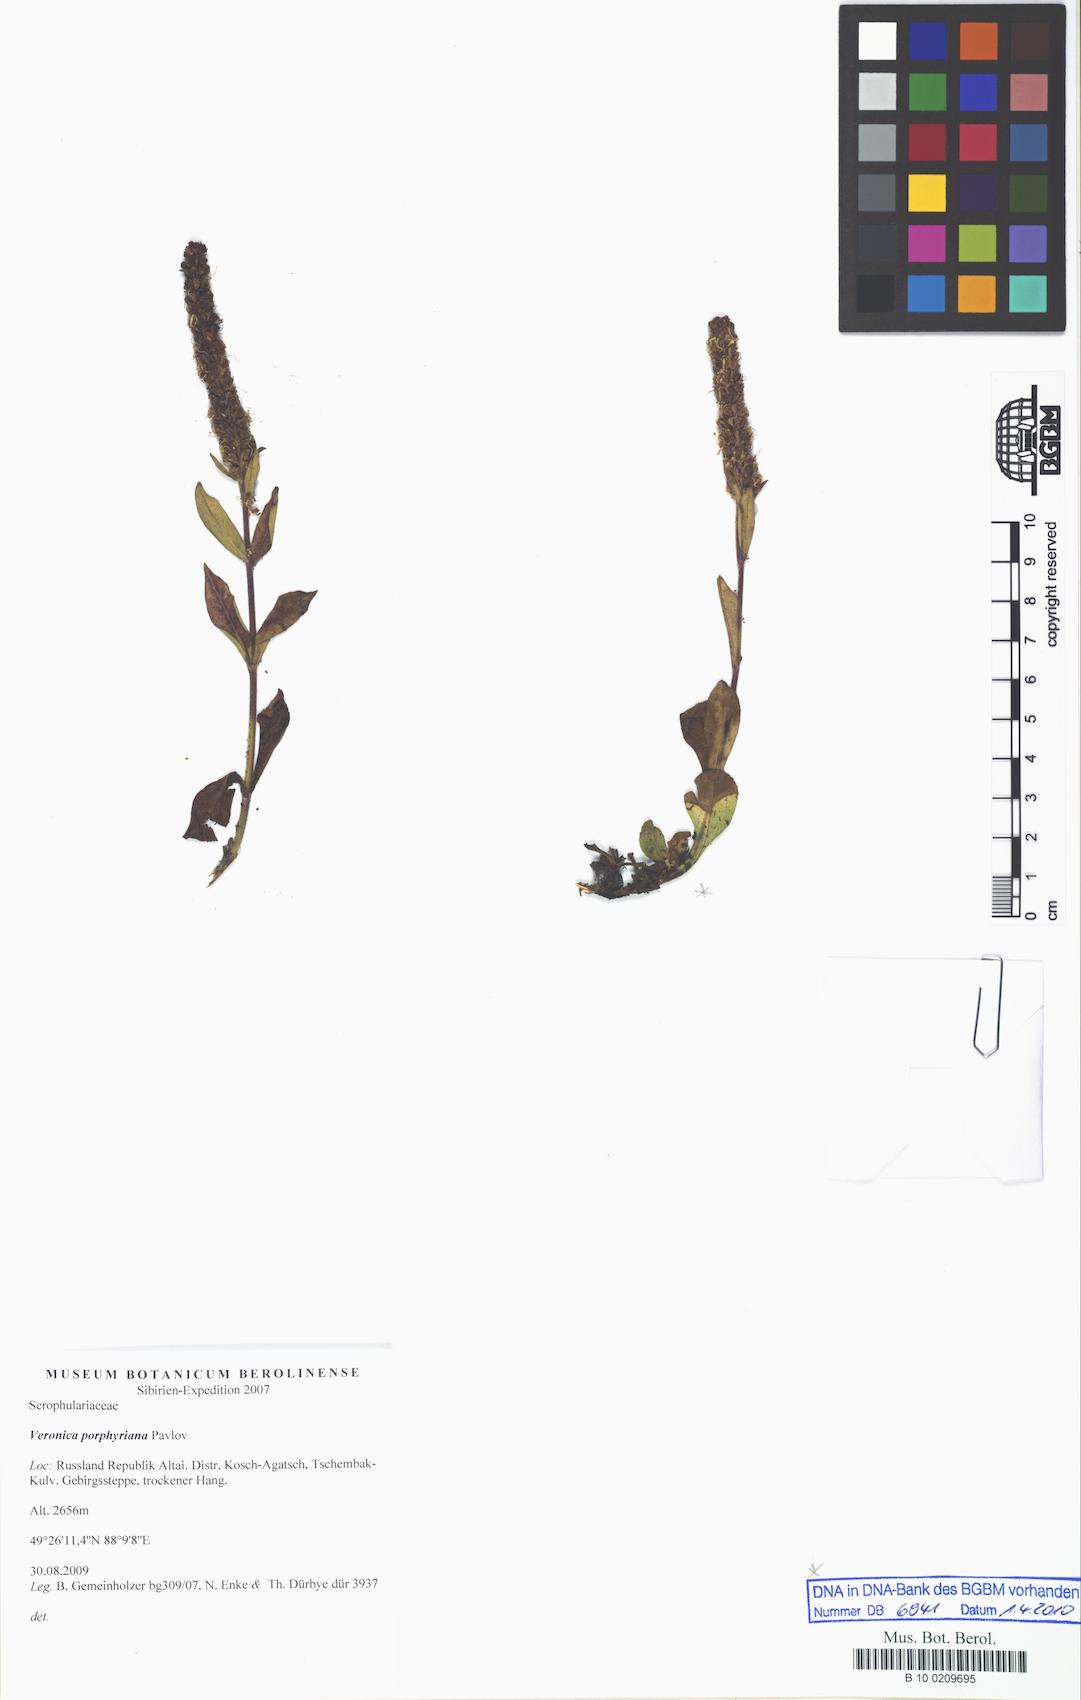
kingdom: Plantae
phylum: Tracheophyta
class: Magnoliopsida
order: Lamiales
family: Plantaginaceae
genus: Veronica
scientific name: Veronica porphyriana
